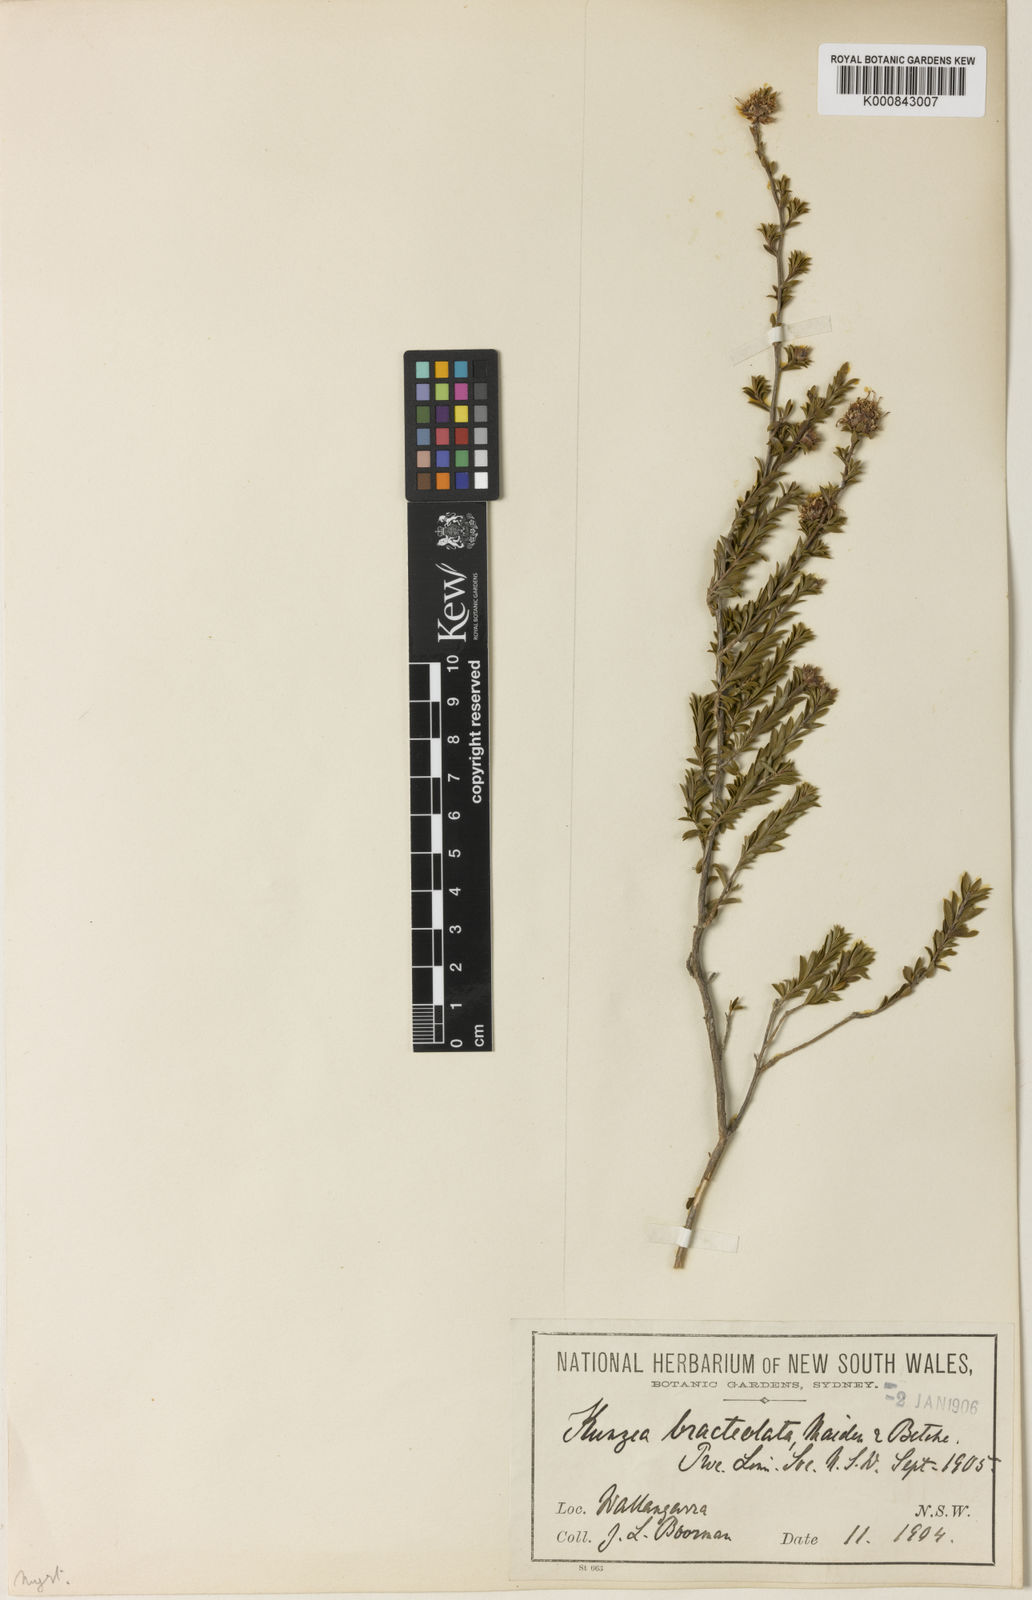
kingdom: Plantae
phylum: Tracheophyta
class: Magnoliopsida
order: Myrtales
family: Myrtaceae
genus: Kunzea
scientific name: Kunzea bracteolata
